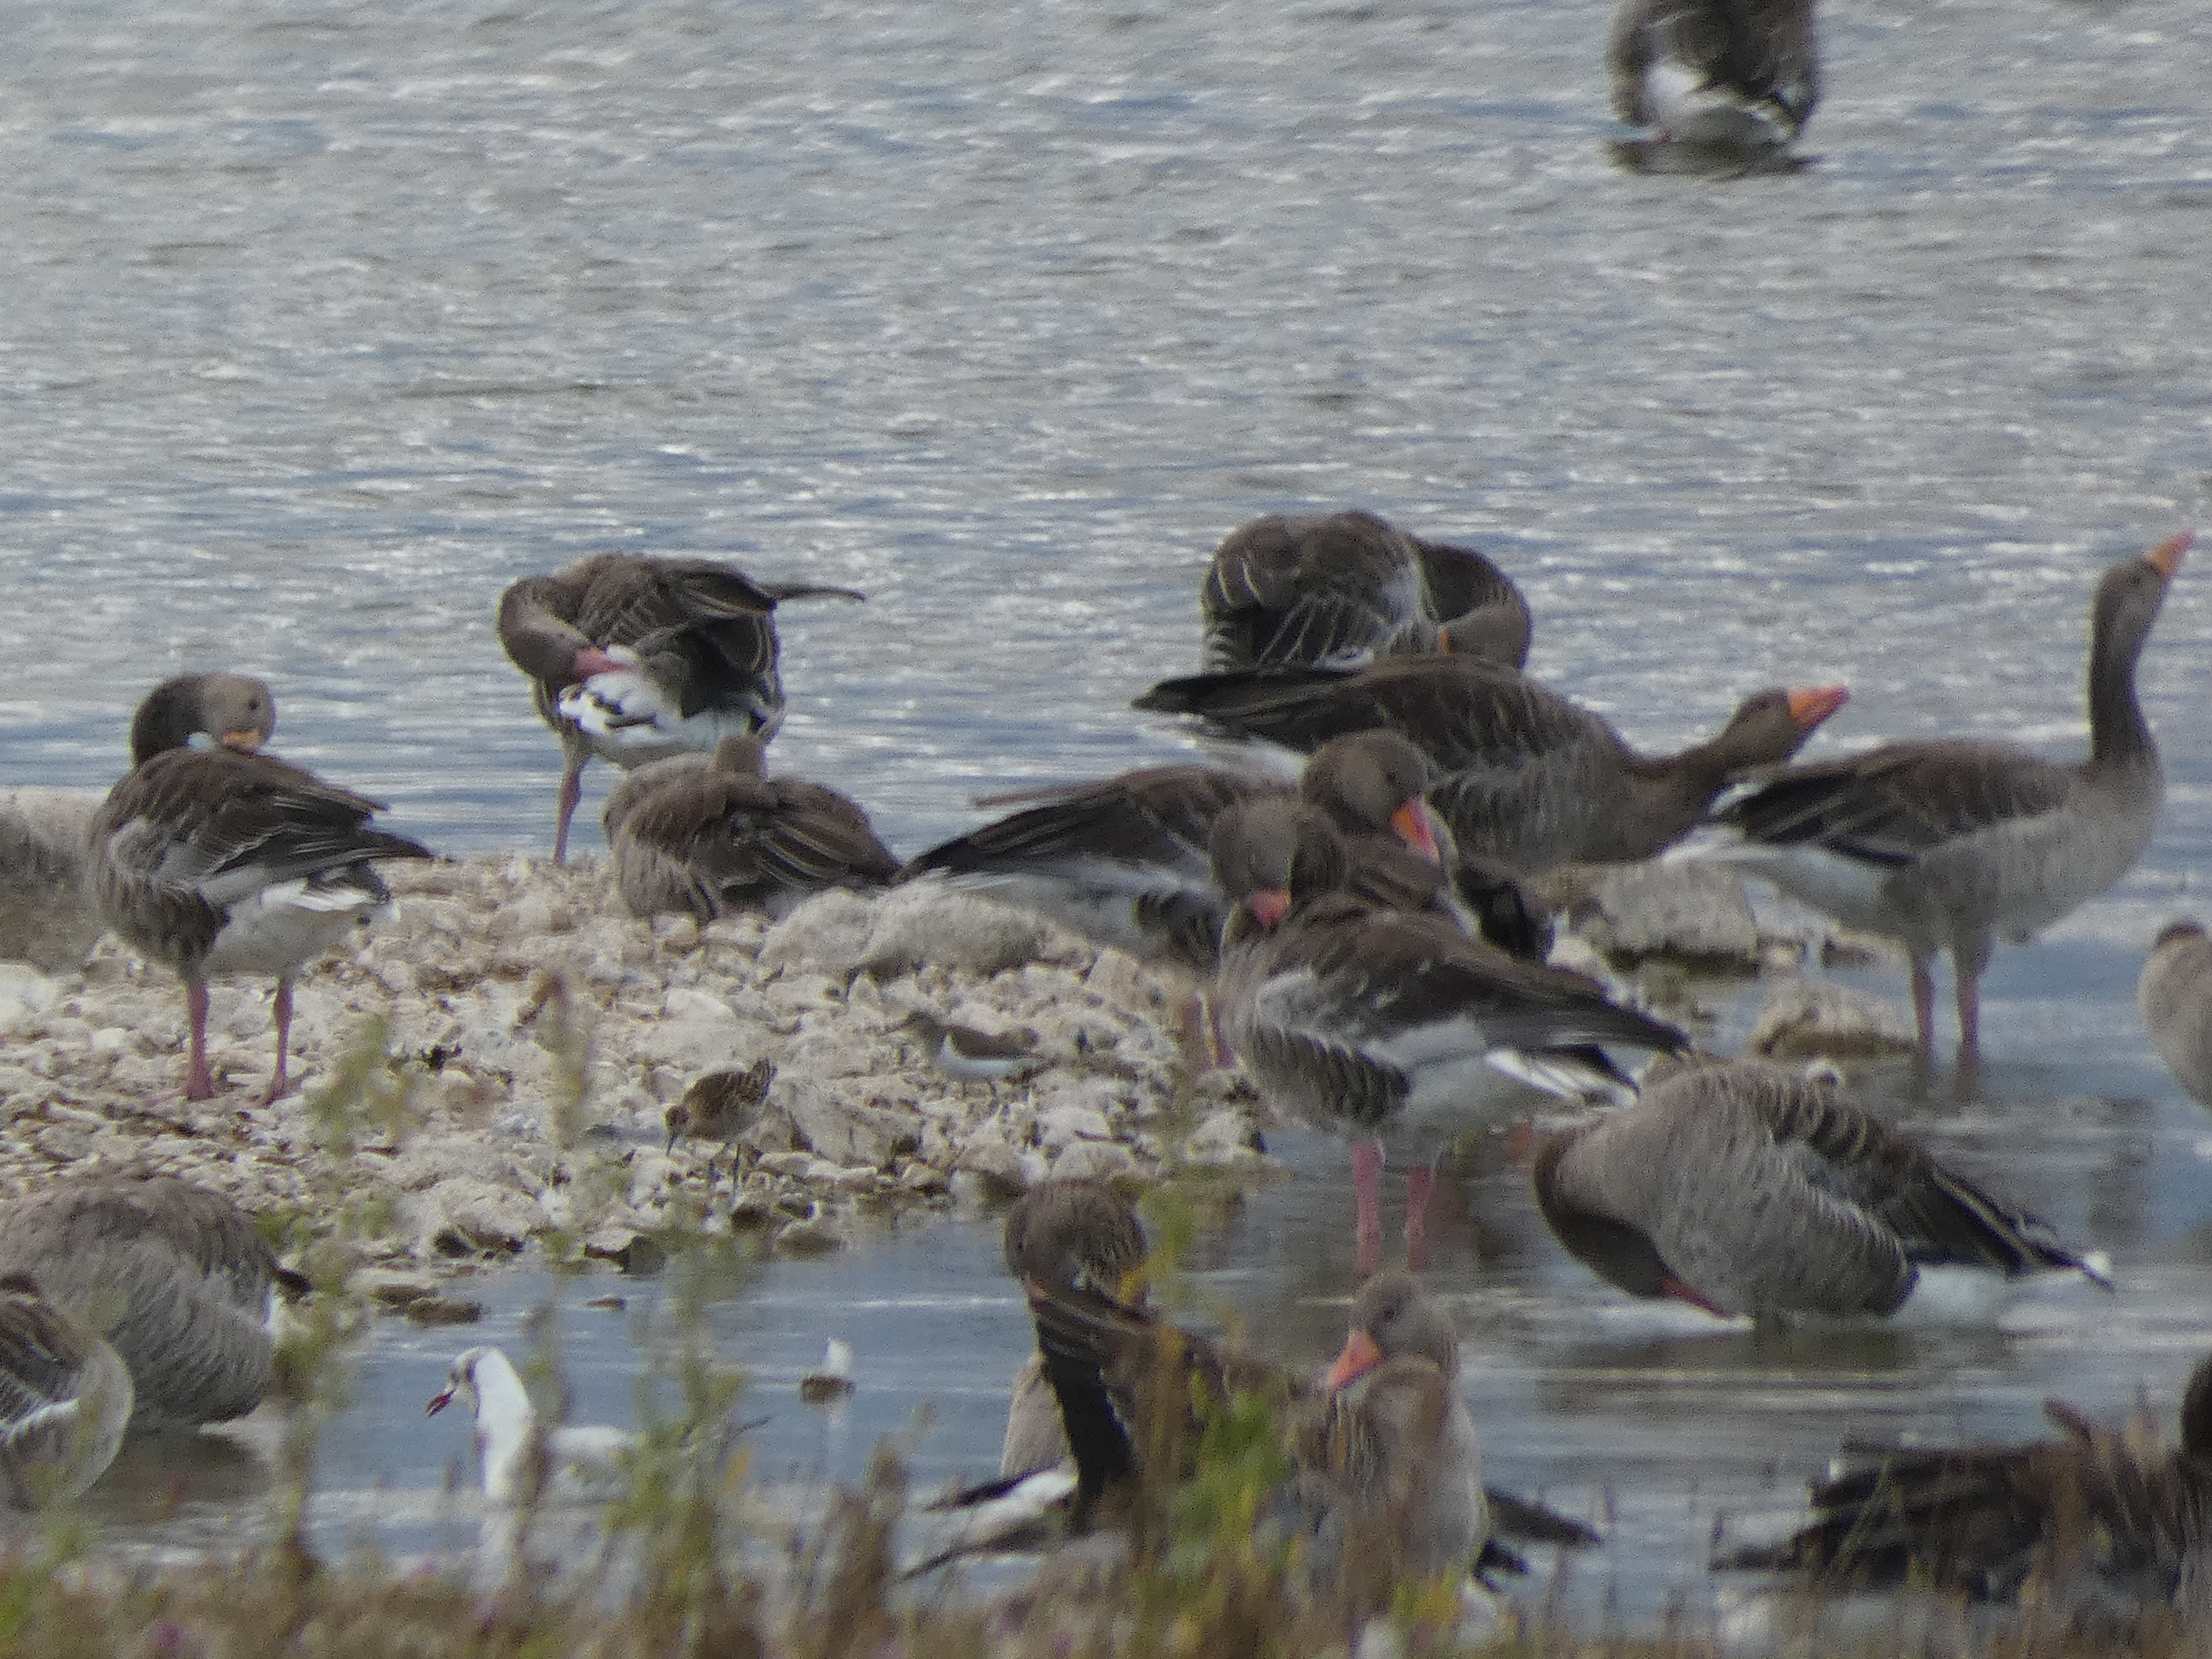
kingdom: Animalia
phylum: Chordata
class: Aves
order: Charadriiformes
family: Laridae
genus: Chroicocephalus
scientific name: Chroicocephalus ridibundus
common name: Hættemåge
